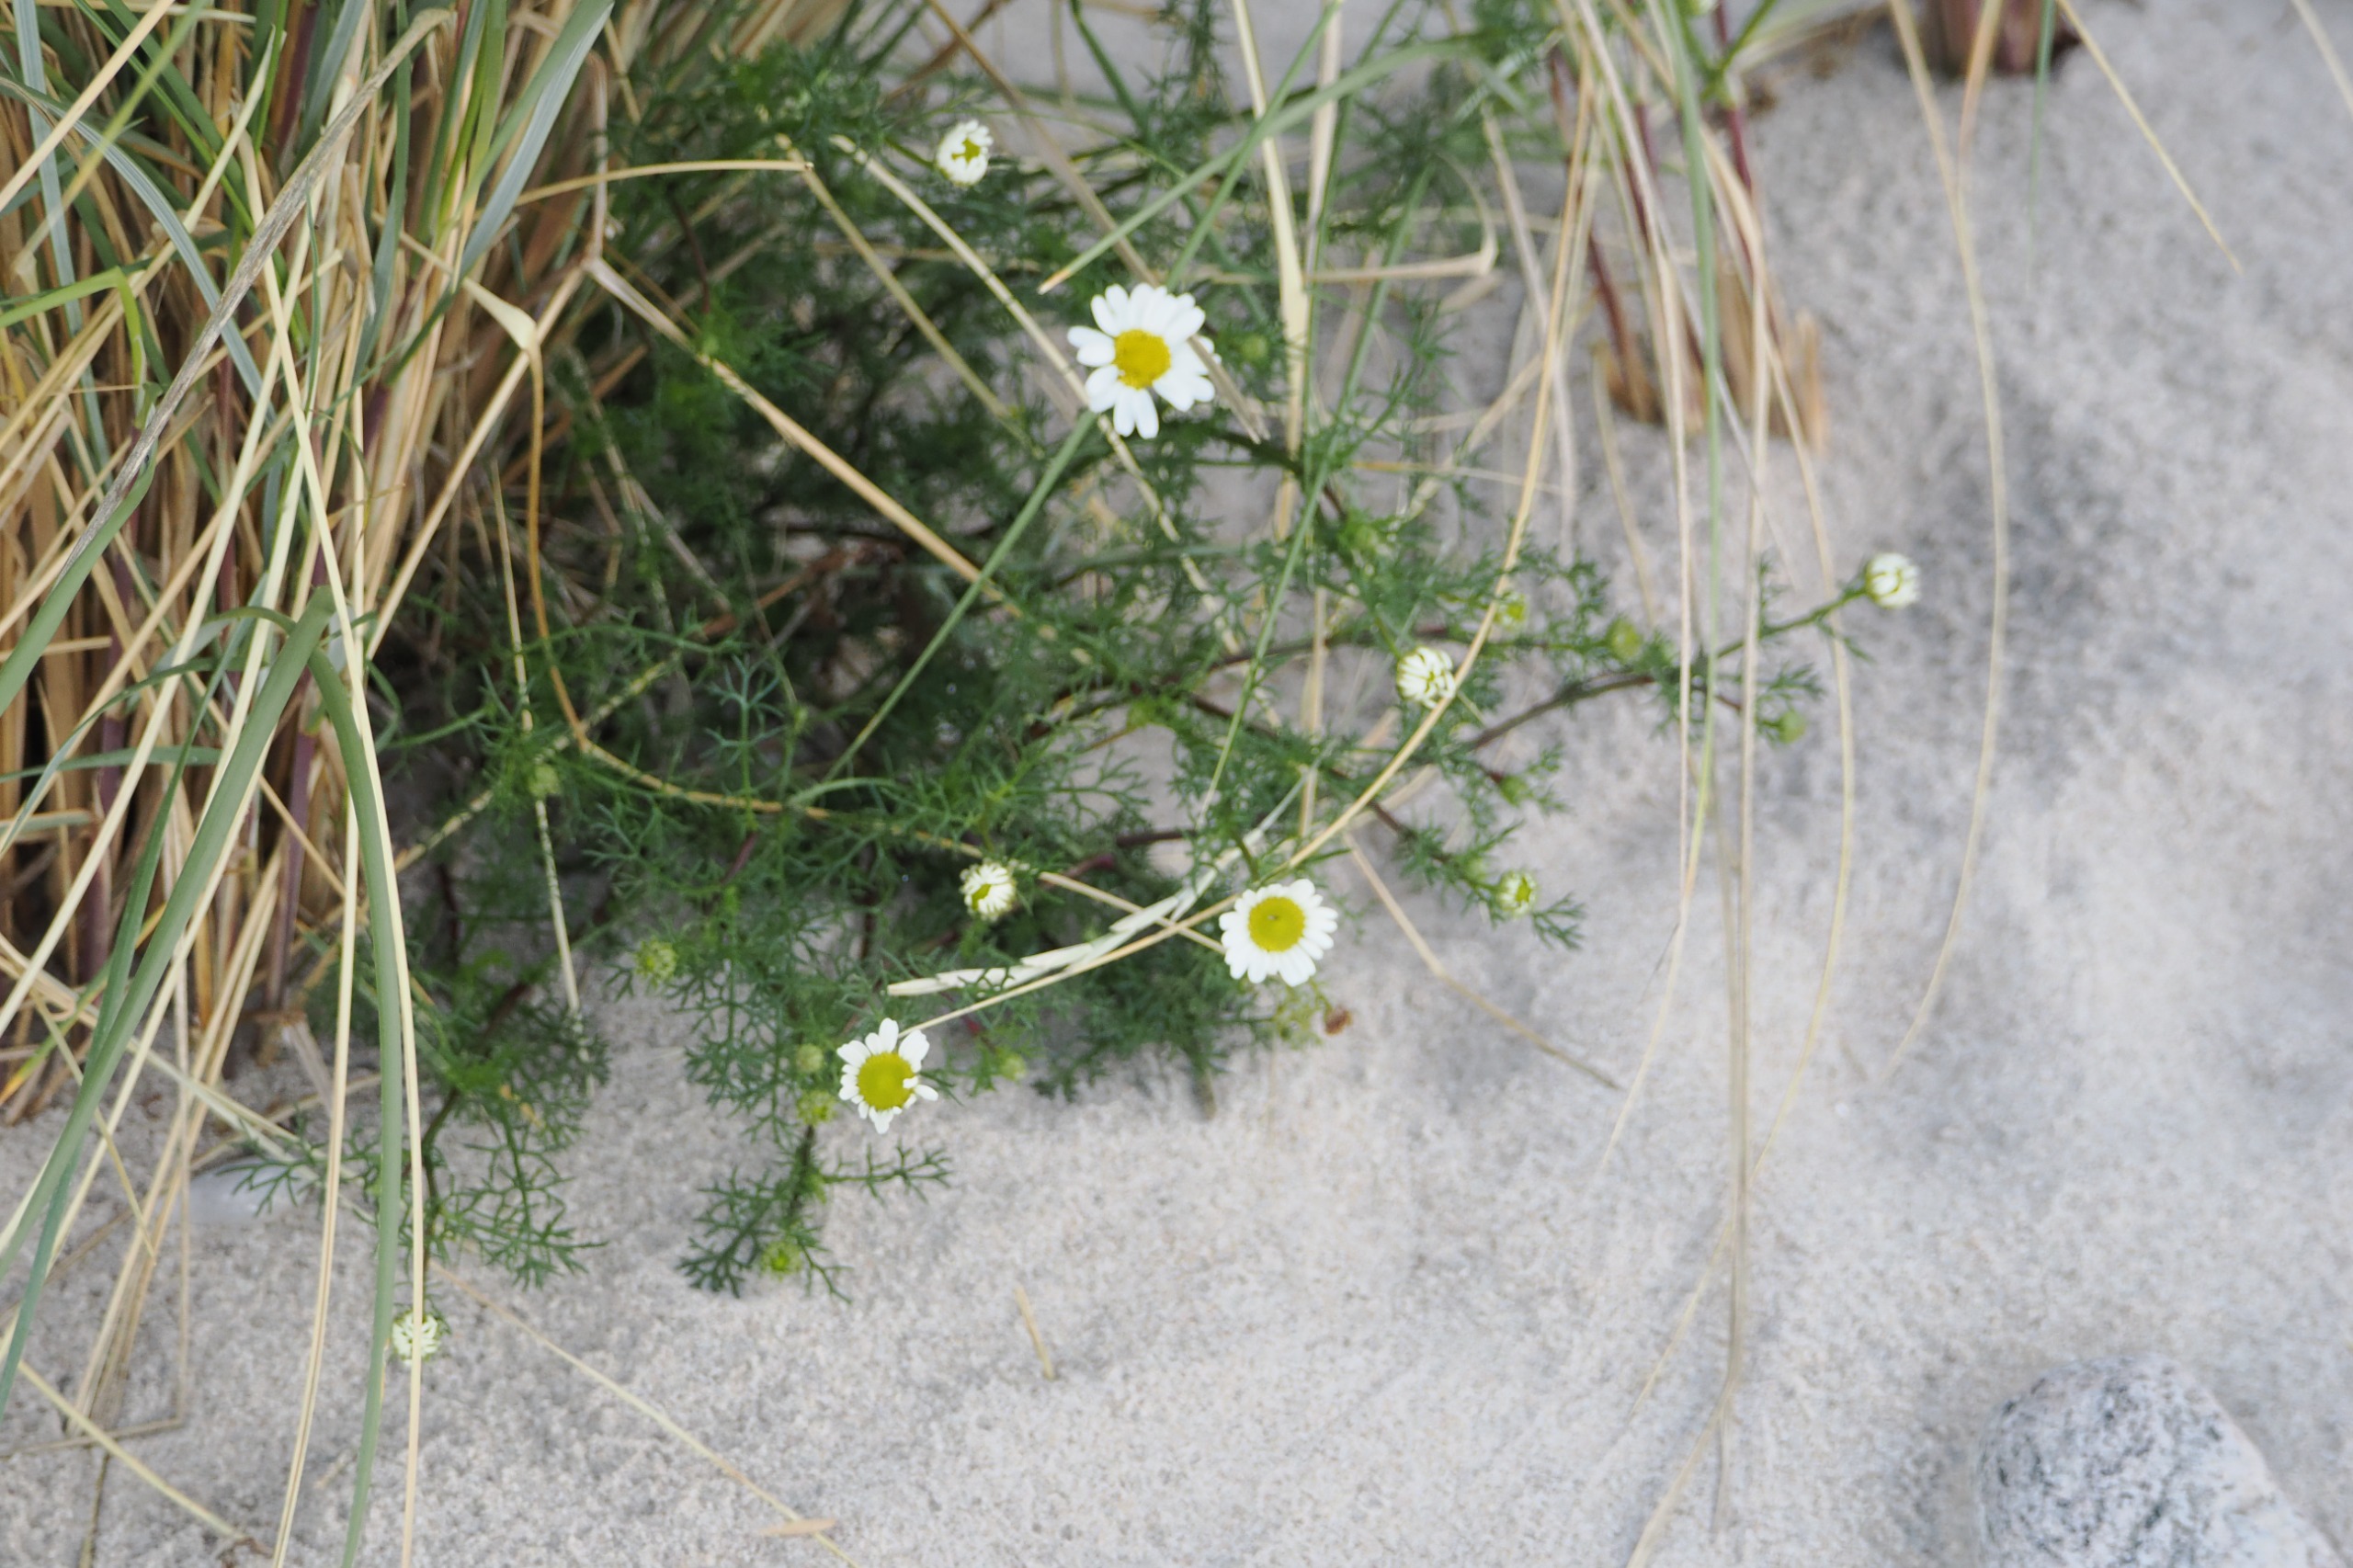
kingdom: Plantae
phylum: Tracheophyta
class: Magnoliopsida
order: Asterales
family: Asteraceae
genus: Tripleurospermum
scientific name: Tripleurospermum maritimum
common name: Strand-kamille
